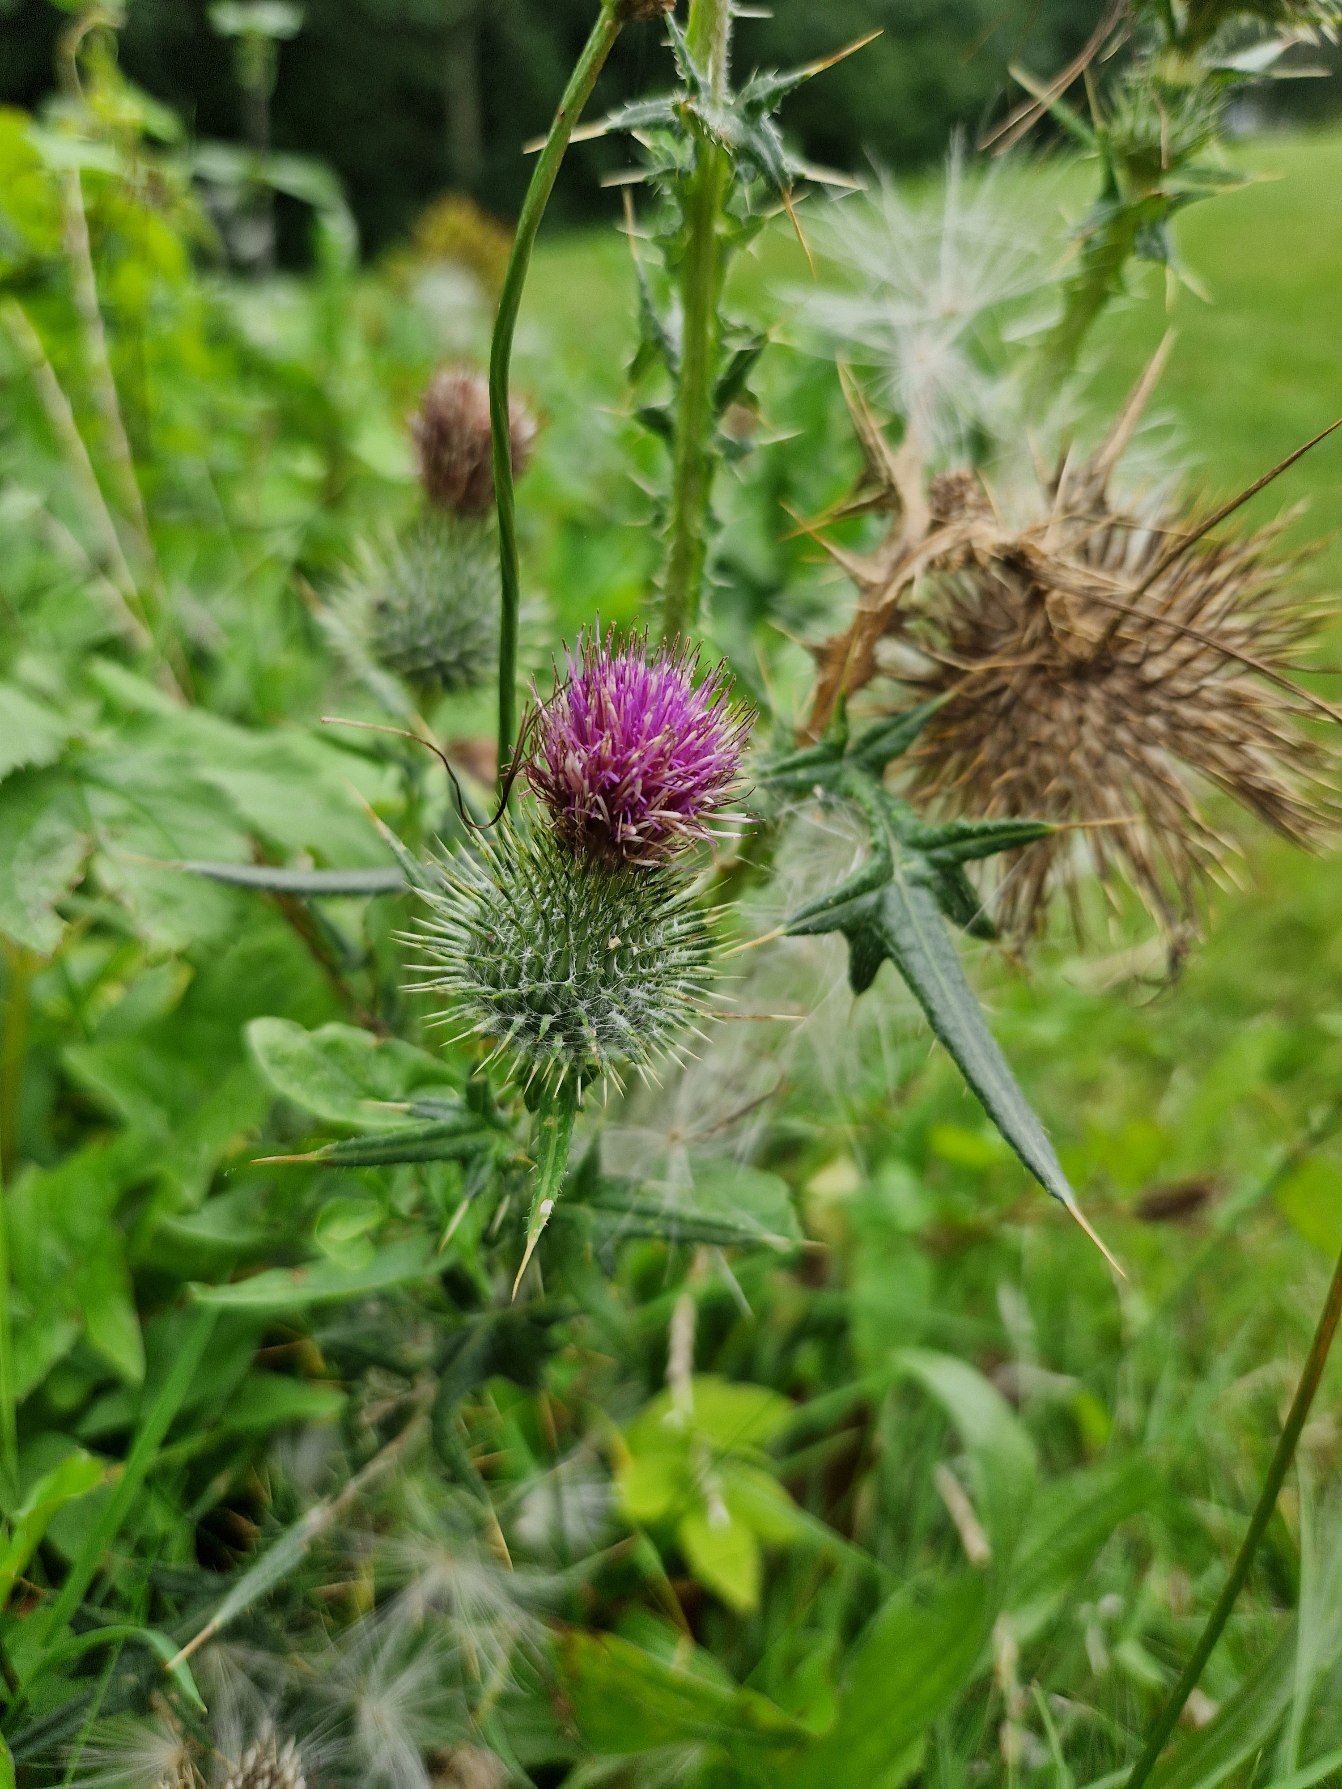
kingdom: Plantae
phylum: Tracheophyta
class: Magnoliopsida
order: Asterales
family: Asteraceae
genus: Cirsium
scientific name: Cirsium vulgare
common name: Horse-tidsel
